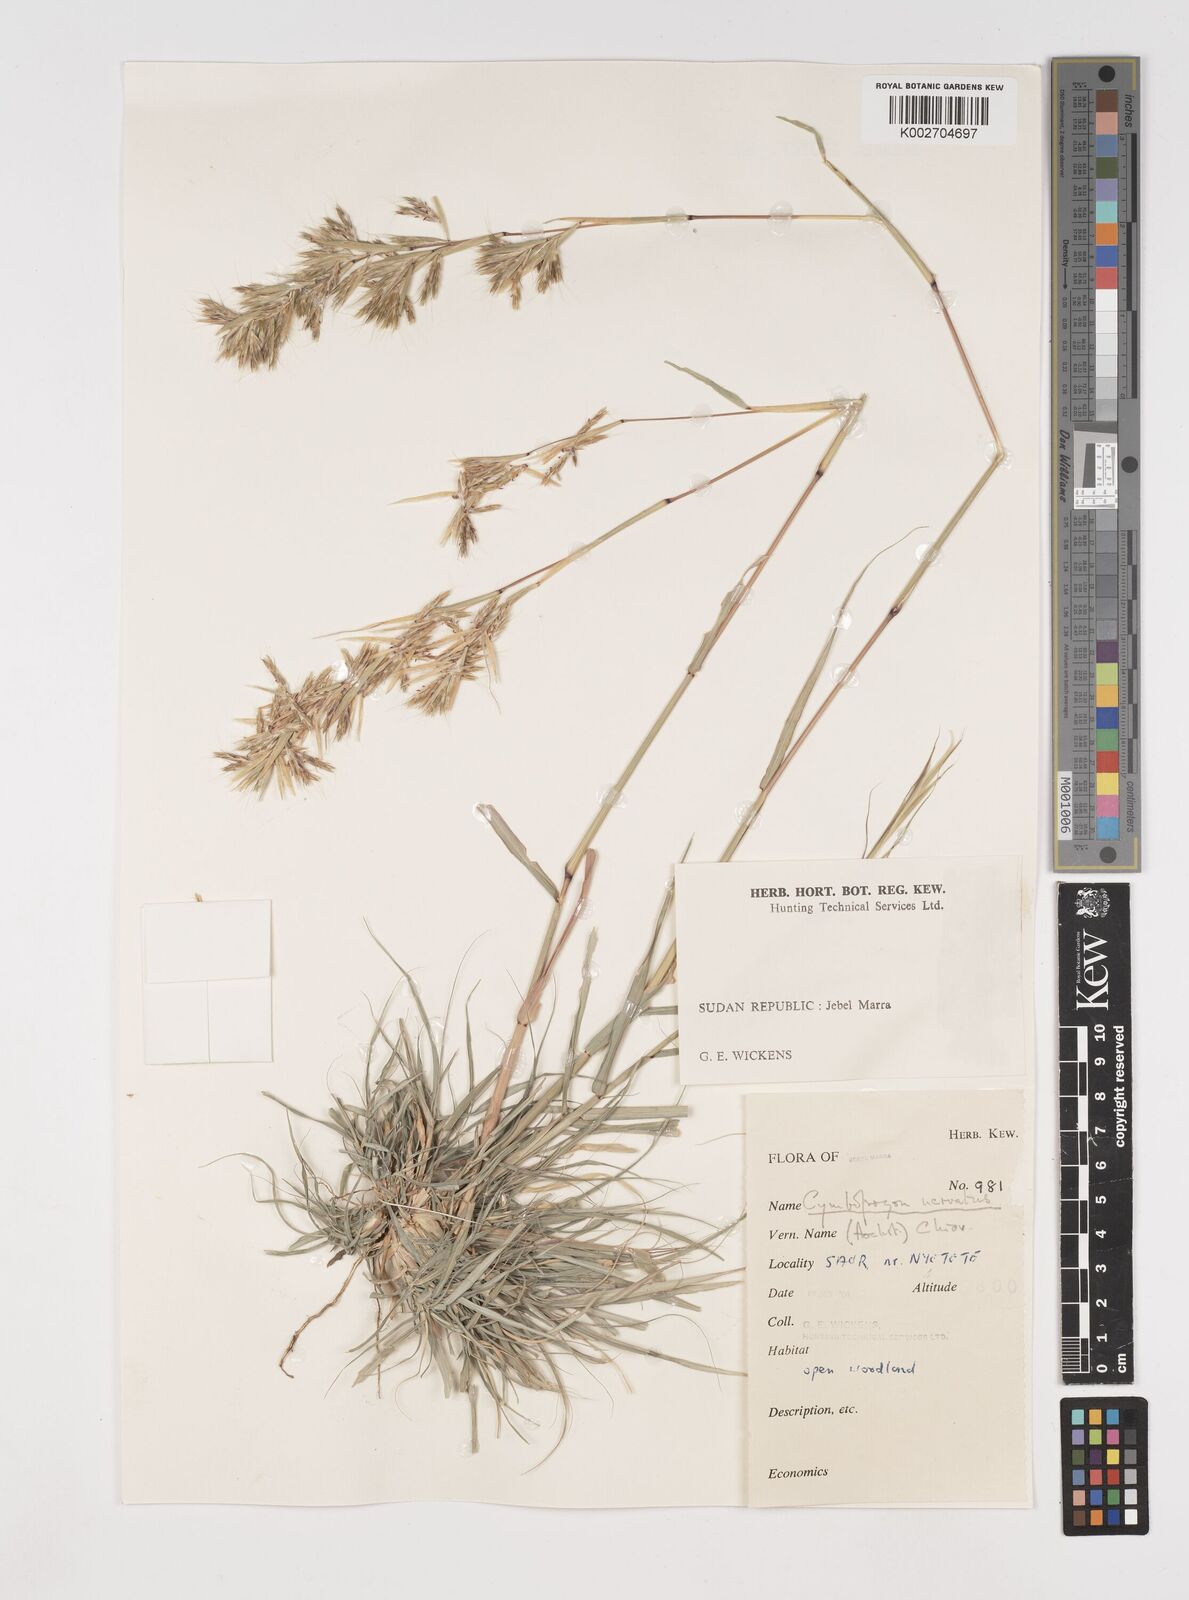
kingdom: Plantae
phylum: Tracheophyta
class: Liliopsida
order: Poales
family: Poaceae
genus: Cymbopogon
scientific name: Cymbopogon
